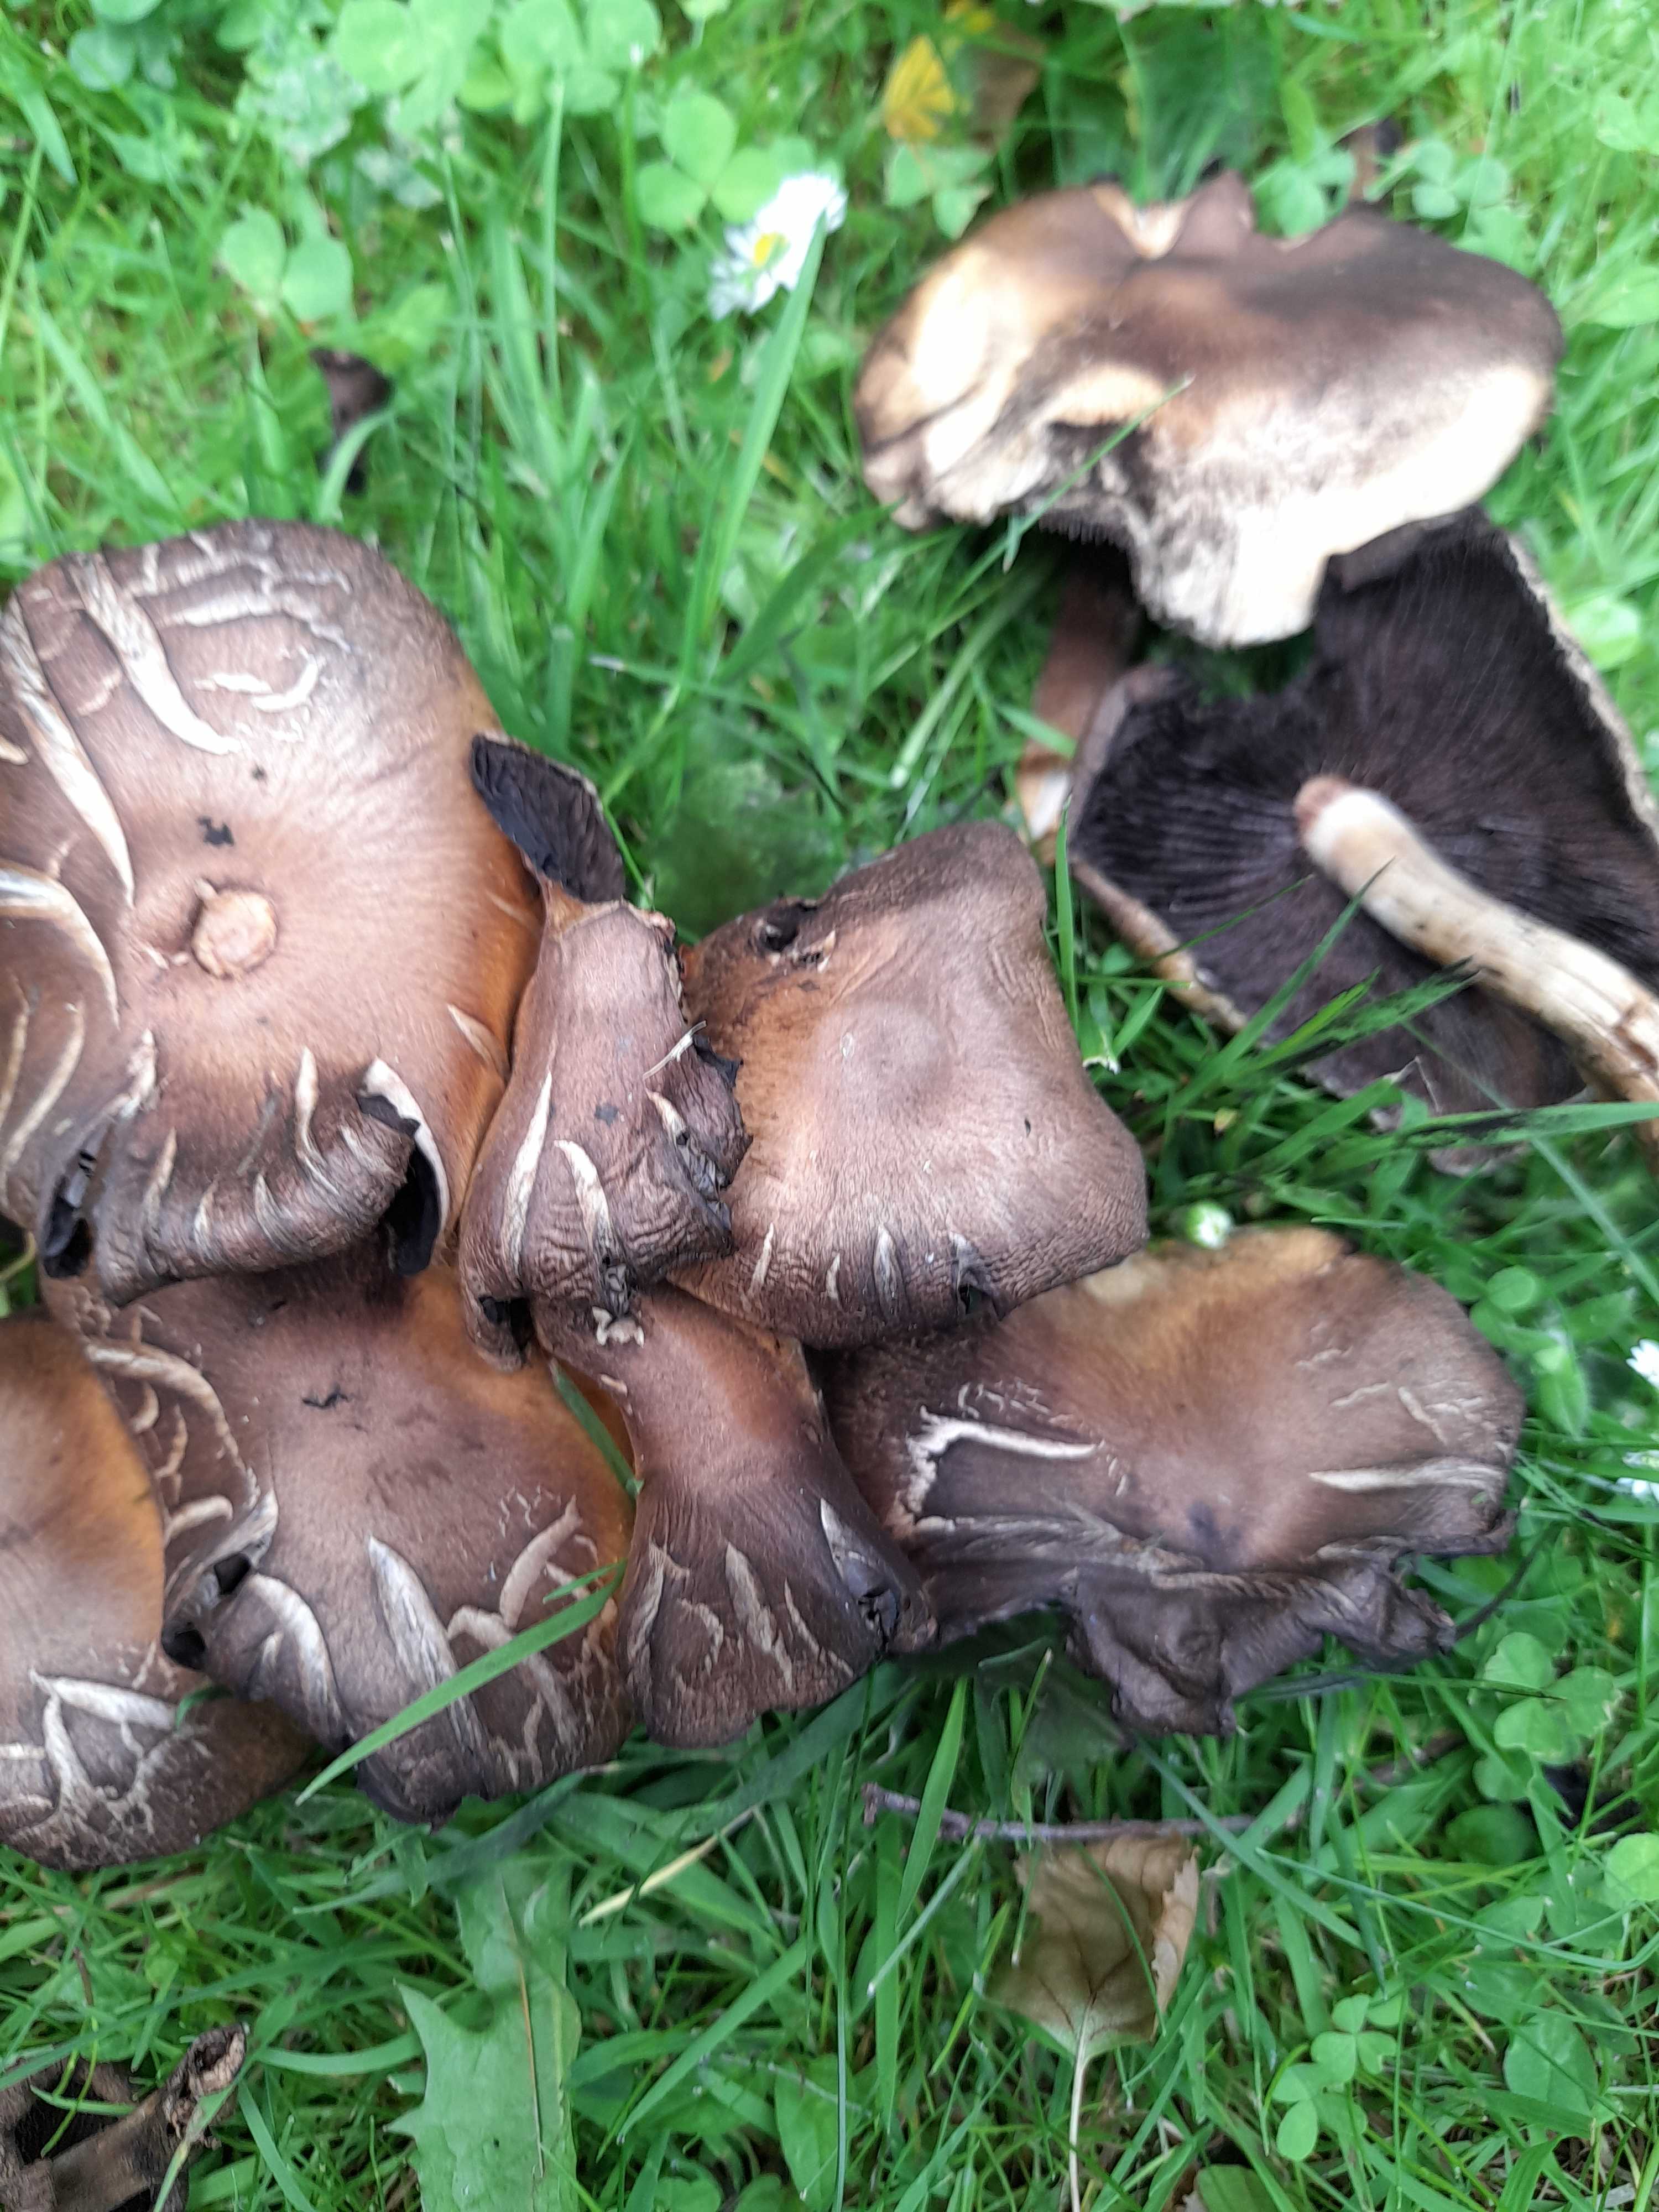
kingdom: Fungi
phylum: Basidiomycota
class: Agaricomycetes
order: Agaricales
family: Psathyrellaceae
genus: Lacrymaria
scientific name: Lacrymaria lacrymabunda
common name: grædende mørkhat
